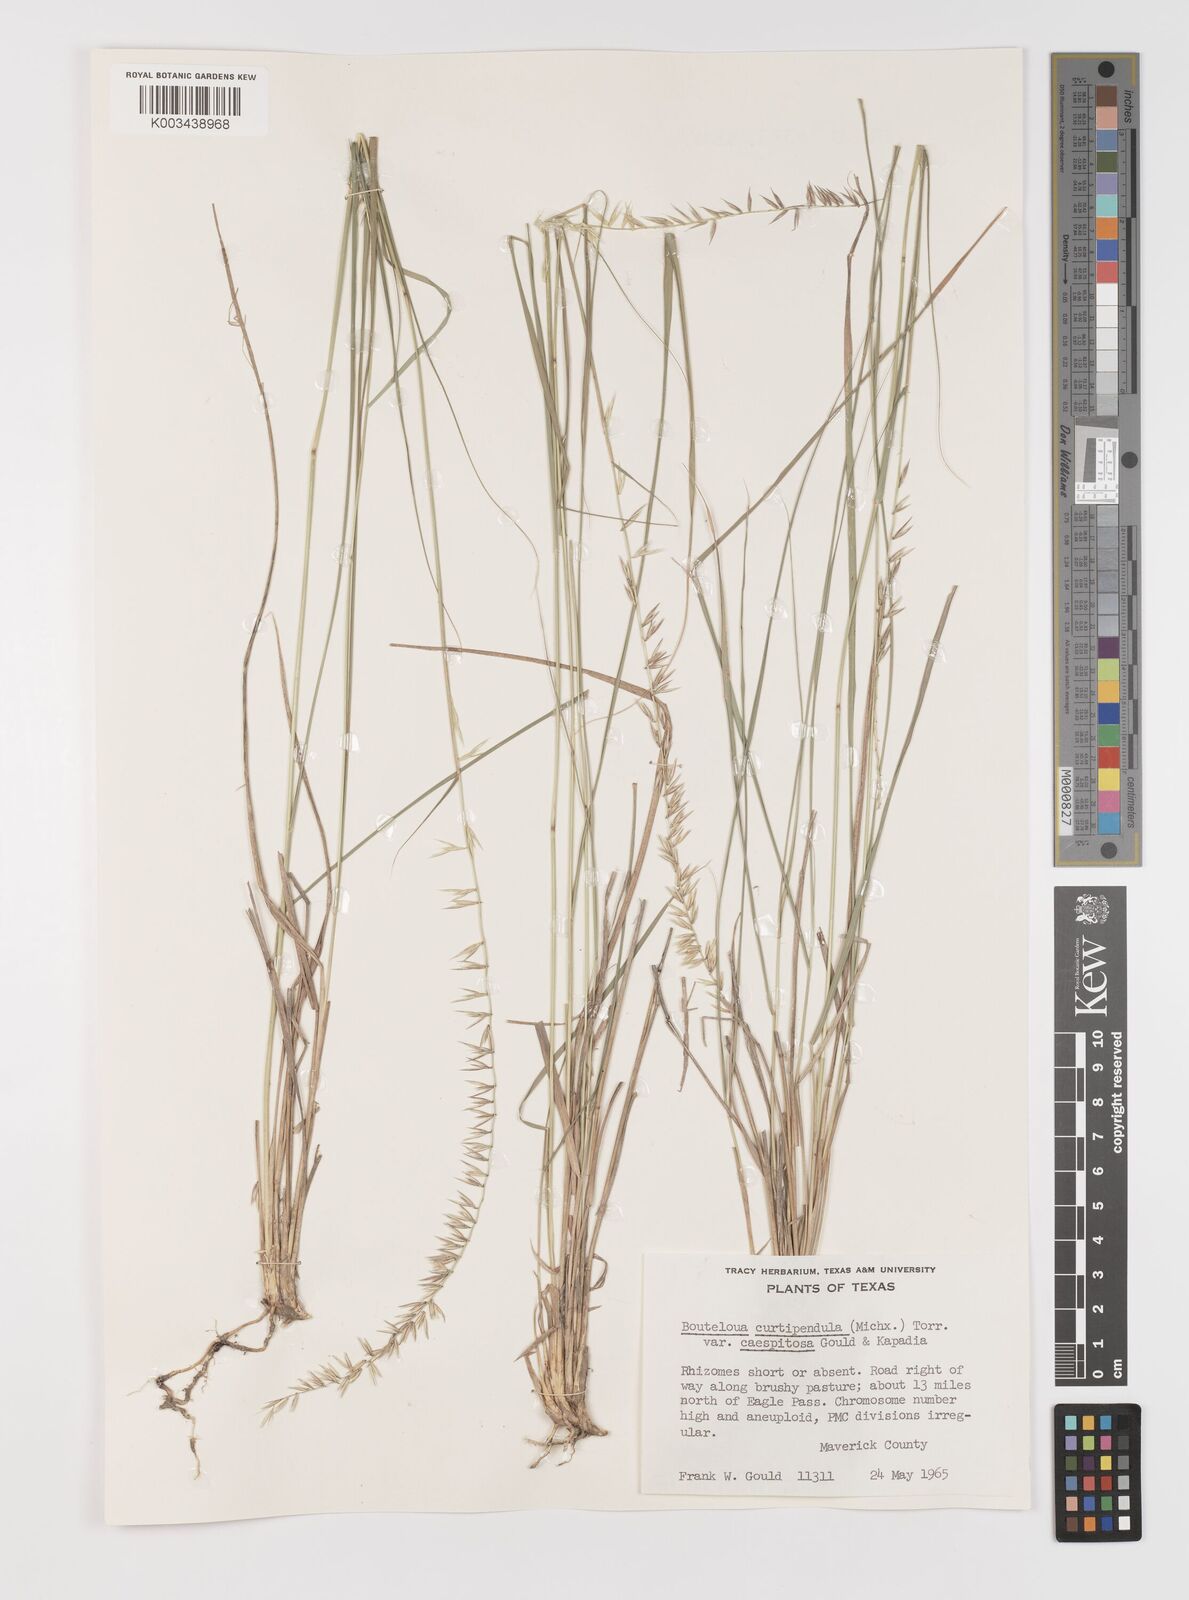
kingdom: Plantae
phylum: Tracheophyta
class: Liliopsida
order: Poales
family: Poaceae
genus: Bouteloua
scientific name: Bouteloua curtipendula
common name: Side-oats grama
